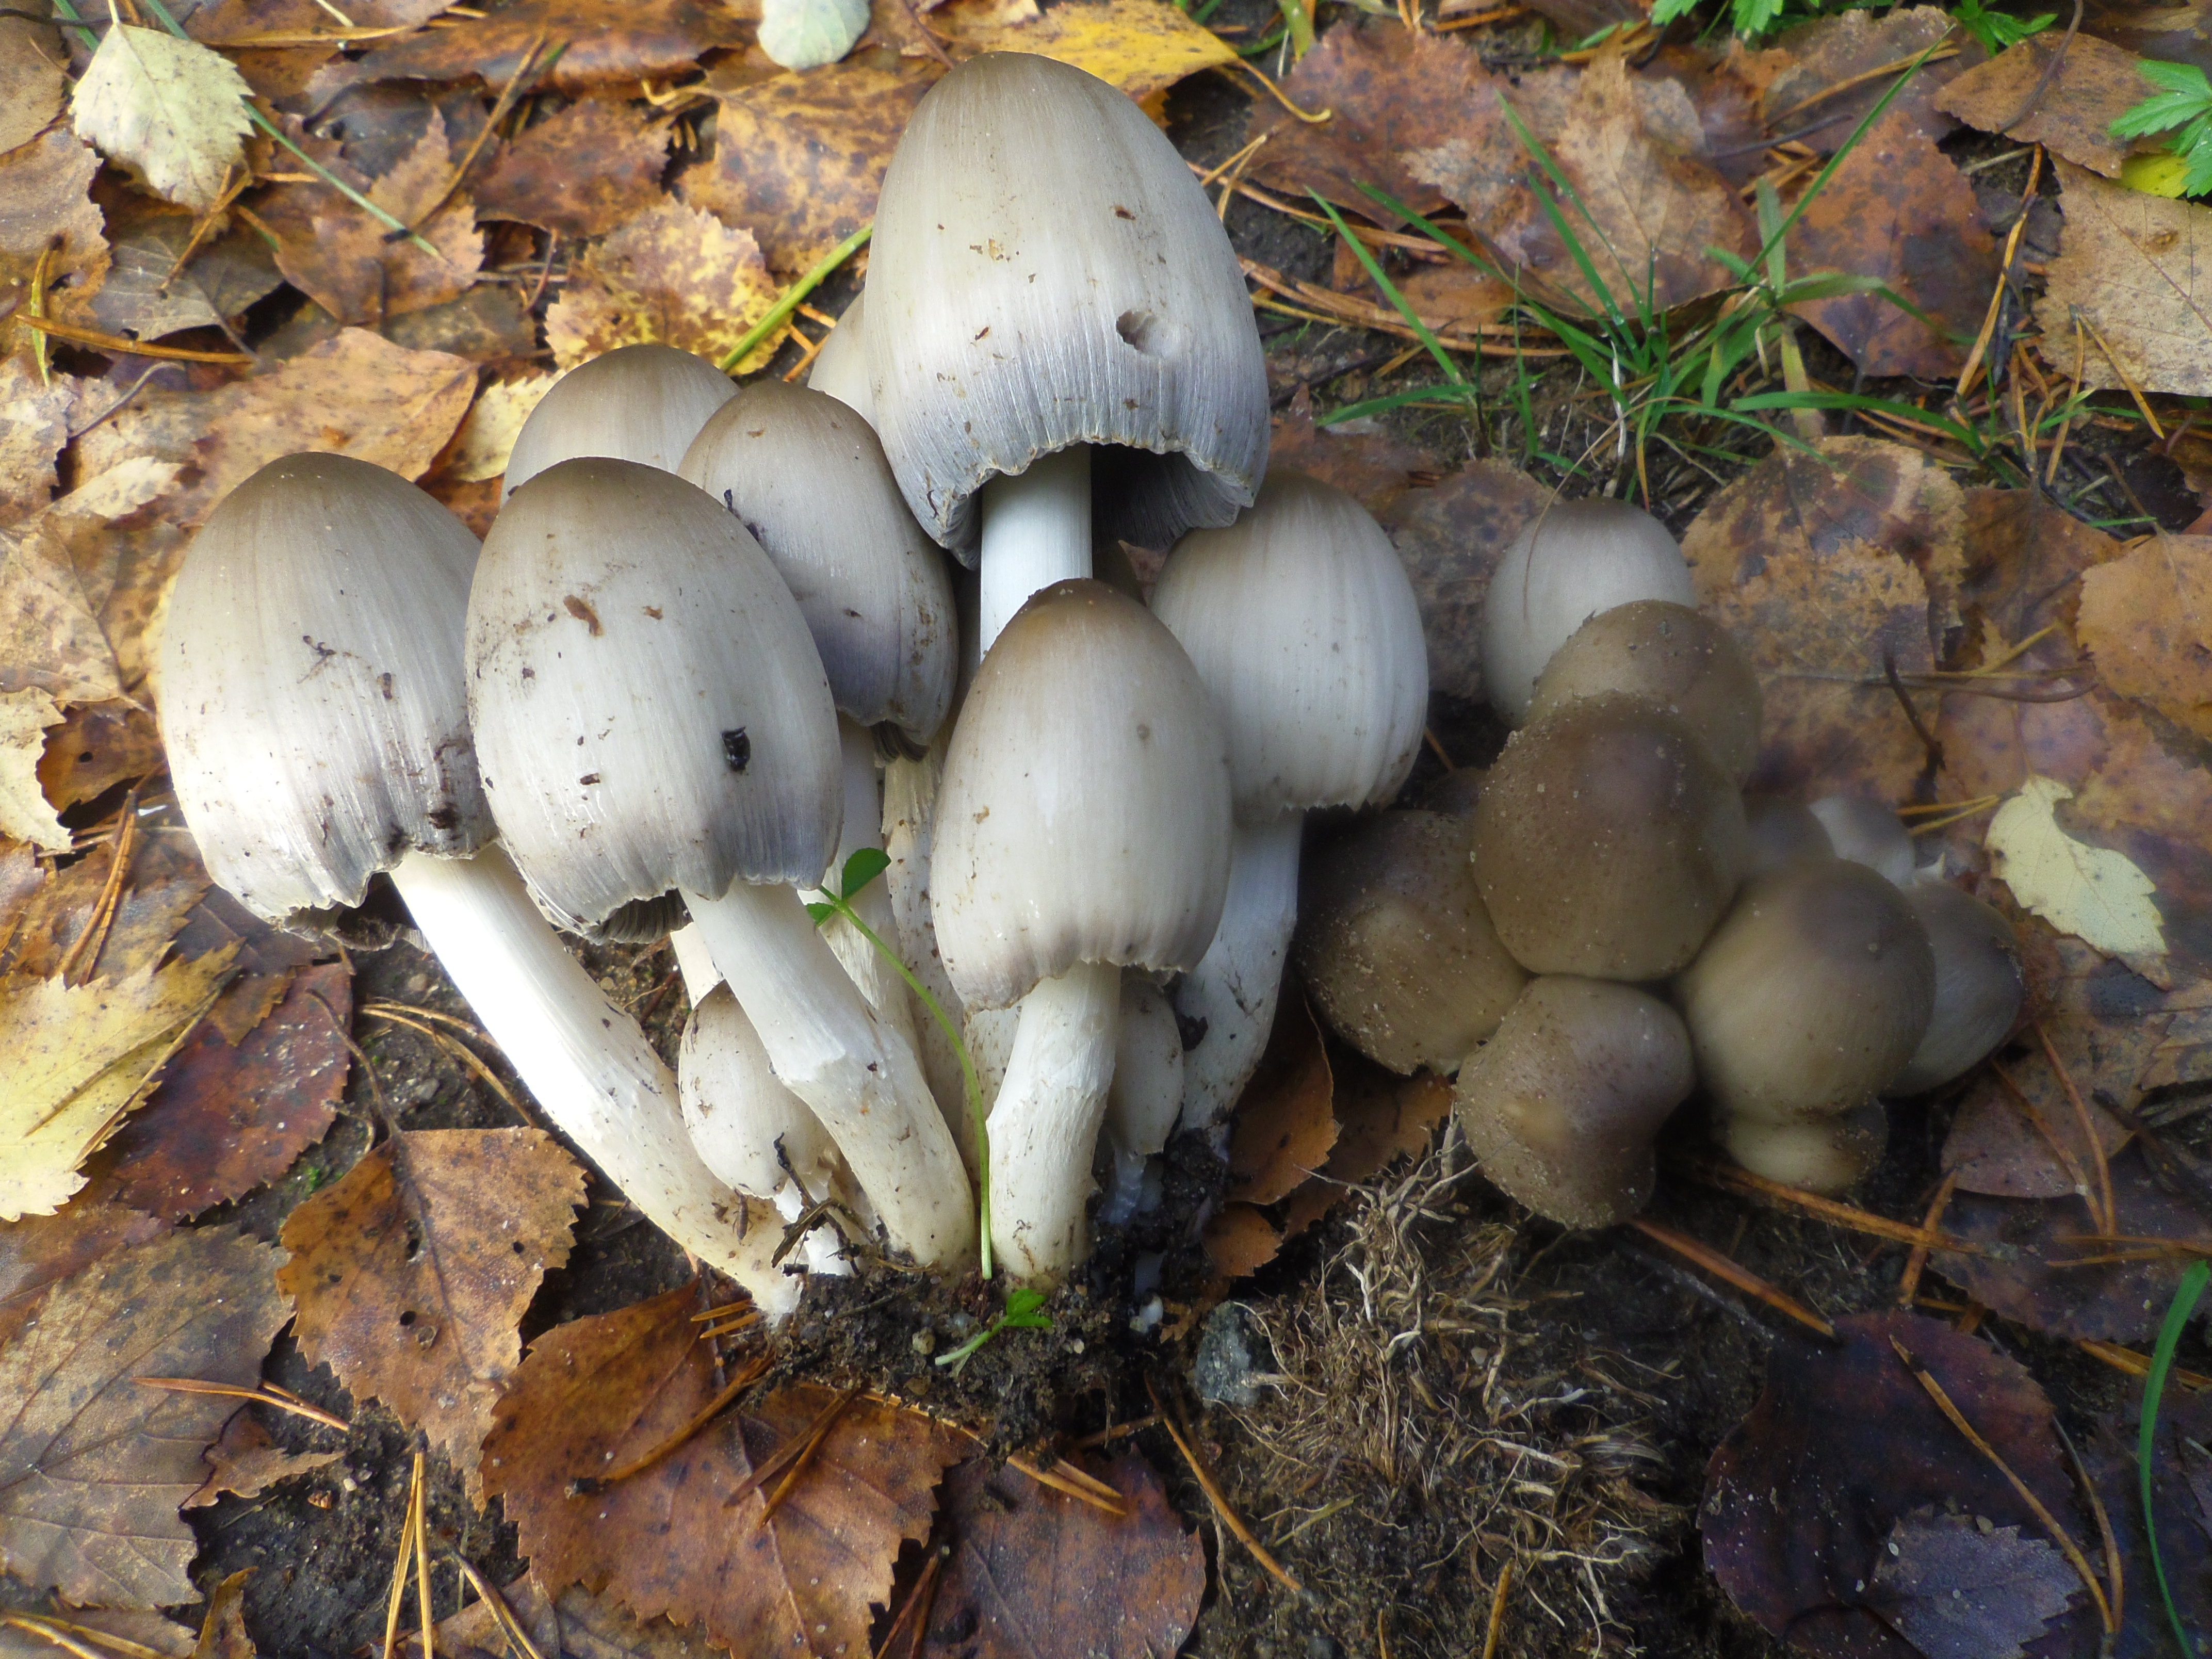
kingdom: Fungi
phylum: Basidiomycota
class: Agaricomycetes
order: Agaricales
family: Psathyrellaceae
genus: Coprinopsis
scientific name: Coprinopsis atramentaria
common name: Common ink-cap
